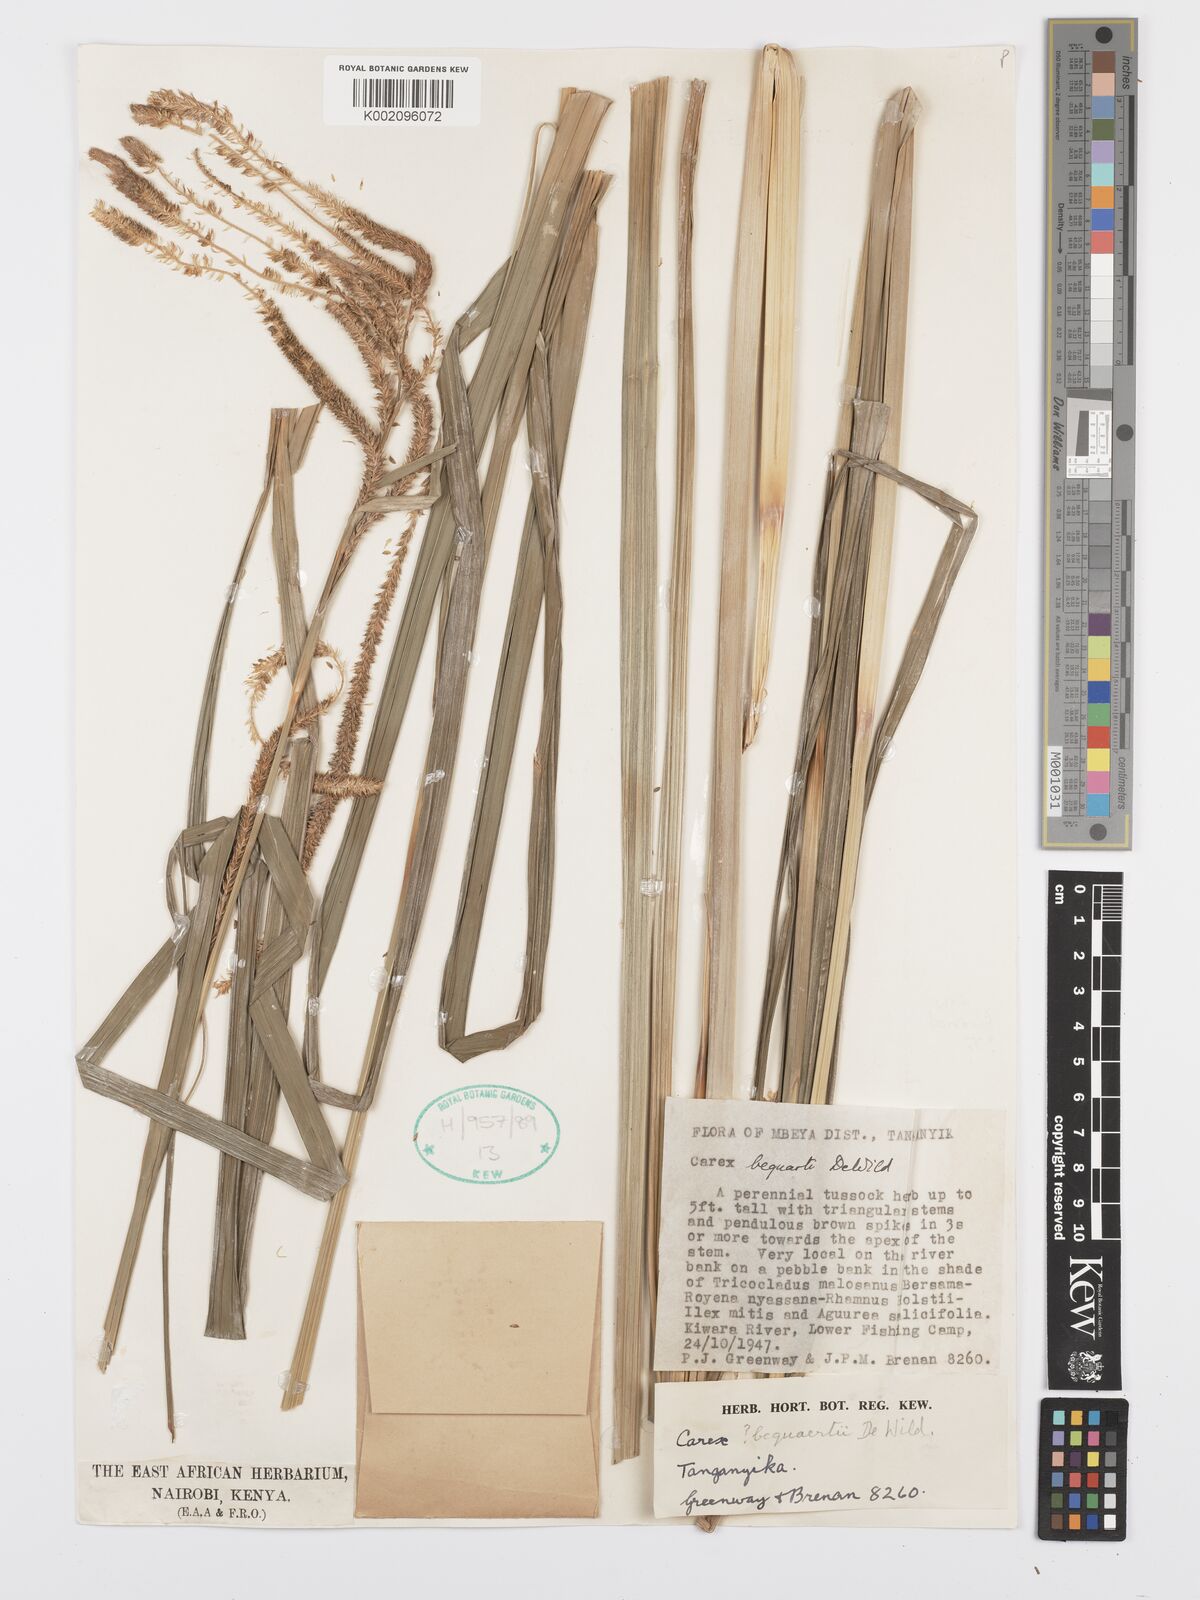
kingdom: Plantae
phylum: Tracheophyta
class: Liliopsida
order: Poales
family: Cyperaceae
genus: Carex
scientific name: Carex bequaertii
